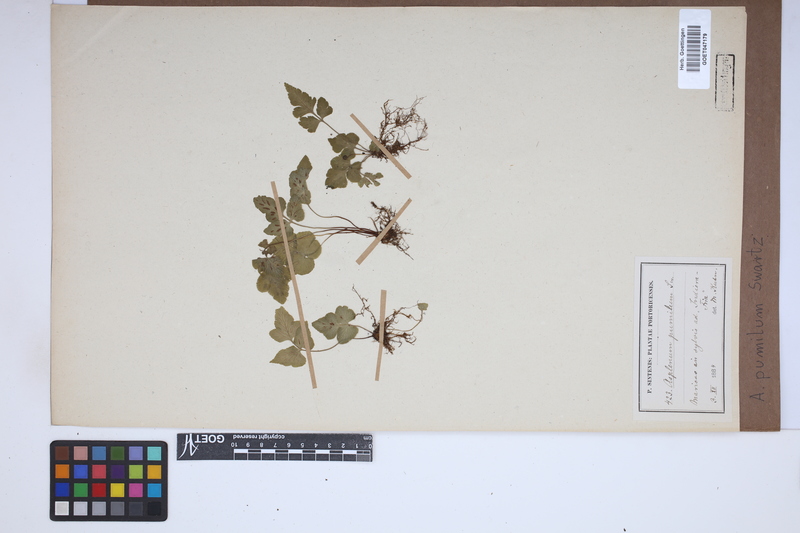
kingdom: Plantae
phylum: Tracheophyta
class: Polypodiopsida
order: Polypodiales
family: Aspleniaceae
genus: Asplenium
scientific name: Asplenium pumilum
